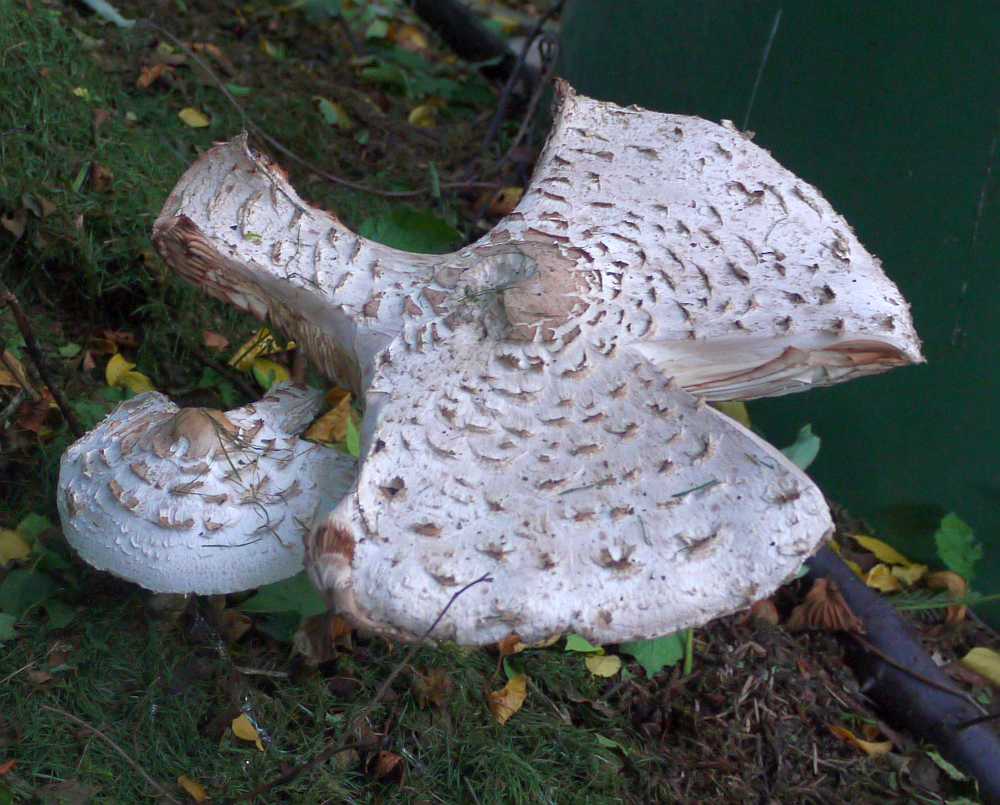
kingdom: Fungi
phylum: Basidiomycota
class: Agaricomycetes
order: Agaricales
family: Agaricaceae
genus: Macrolepiota
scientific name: Macrolepiota mastoidea
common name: puklet kæmpeparasolhat
